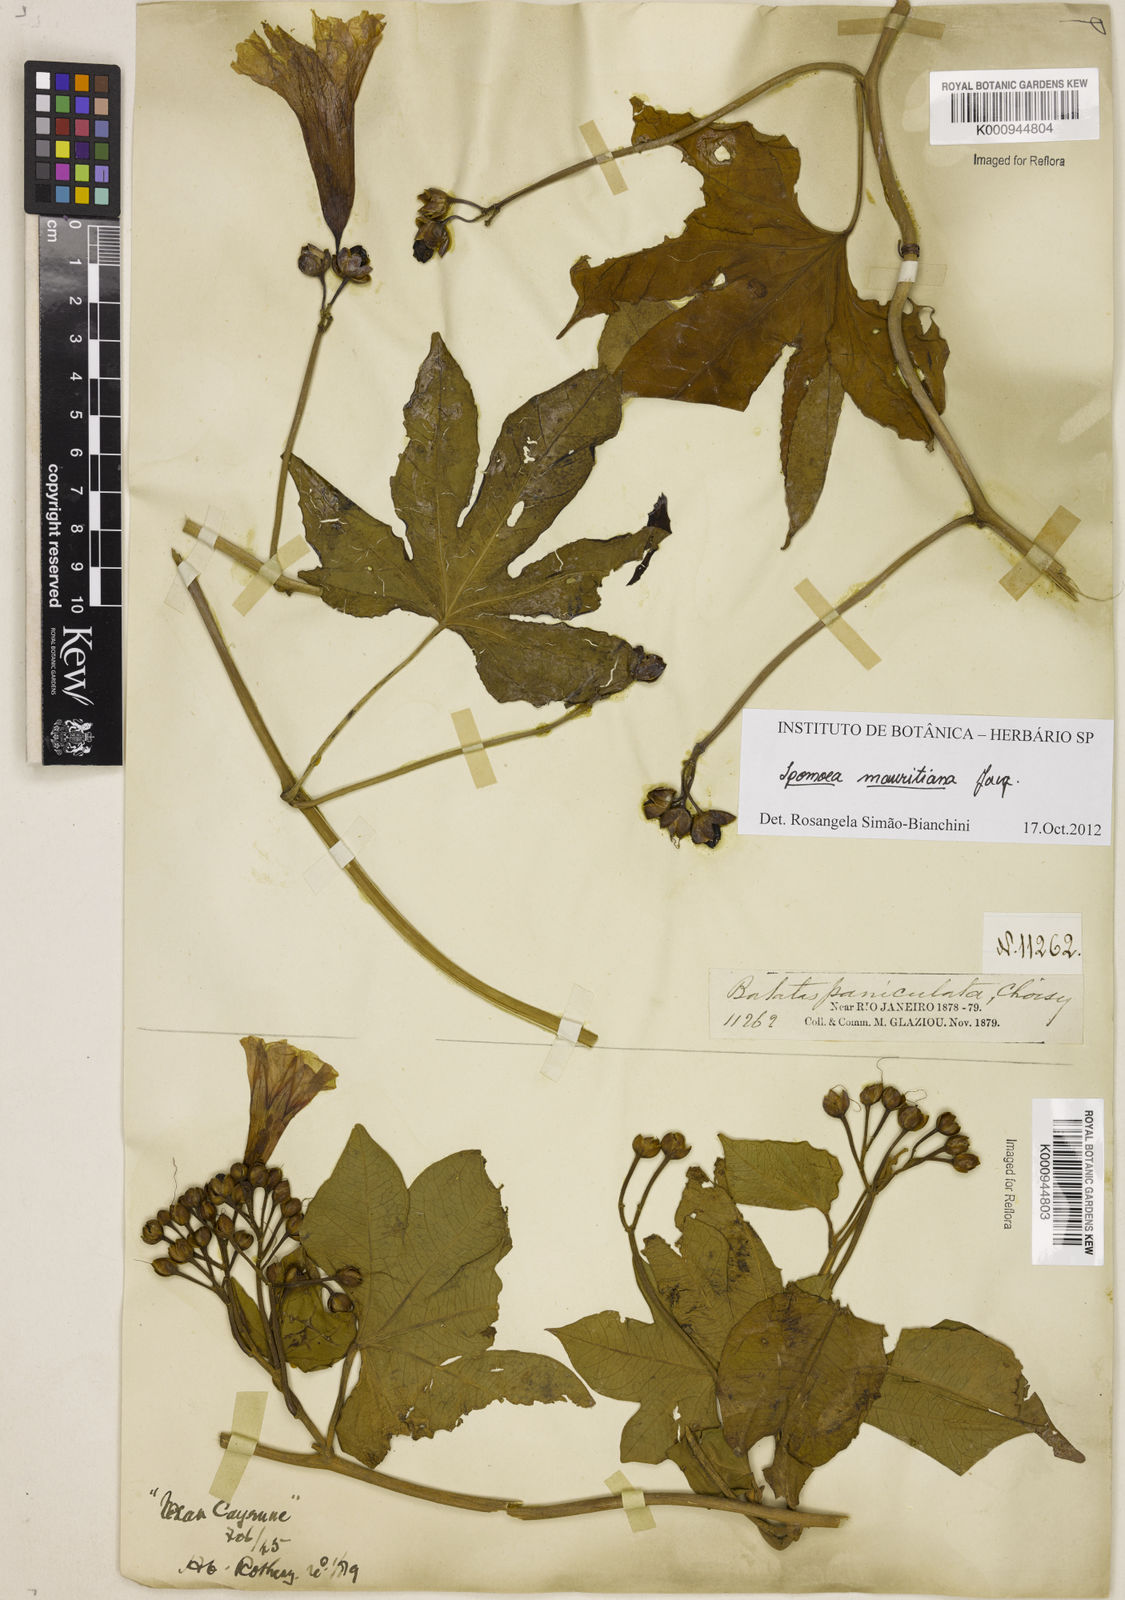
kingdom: Plantae
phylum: Tracheophyta
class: Magnoliopsida
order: Solanales
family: Convolvulaceae
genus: Ipomoea
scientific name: Ipomoea digitata
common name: Finger-leaf morning-glory
